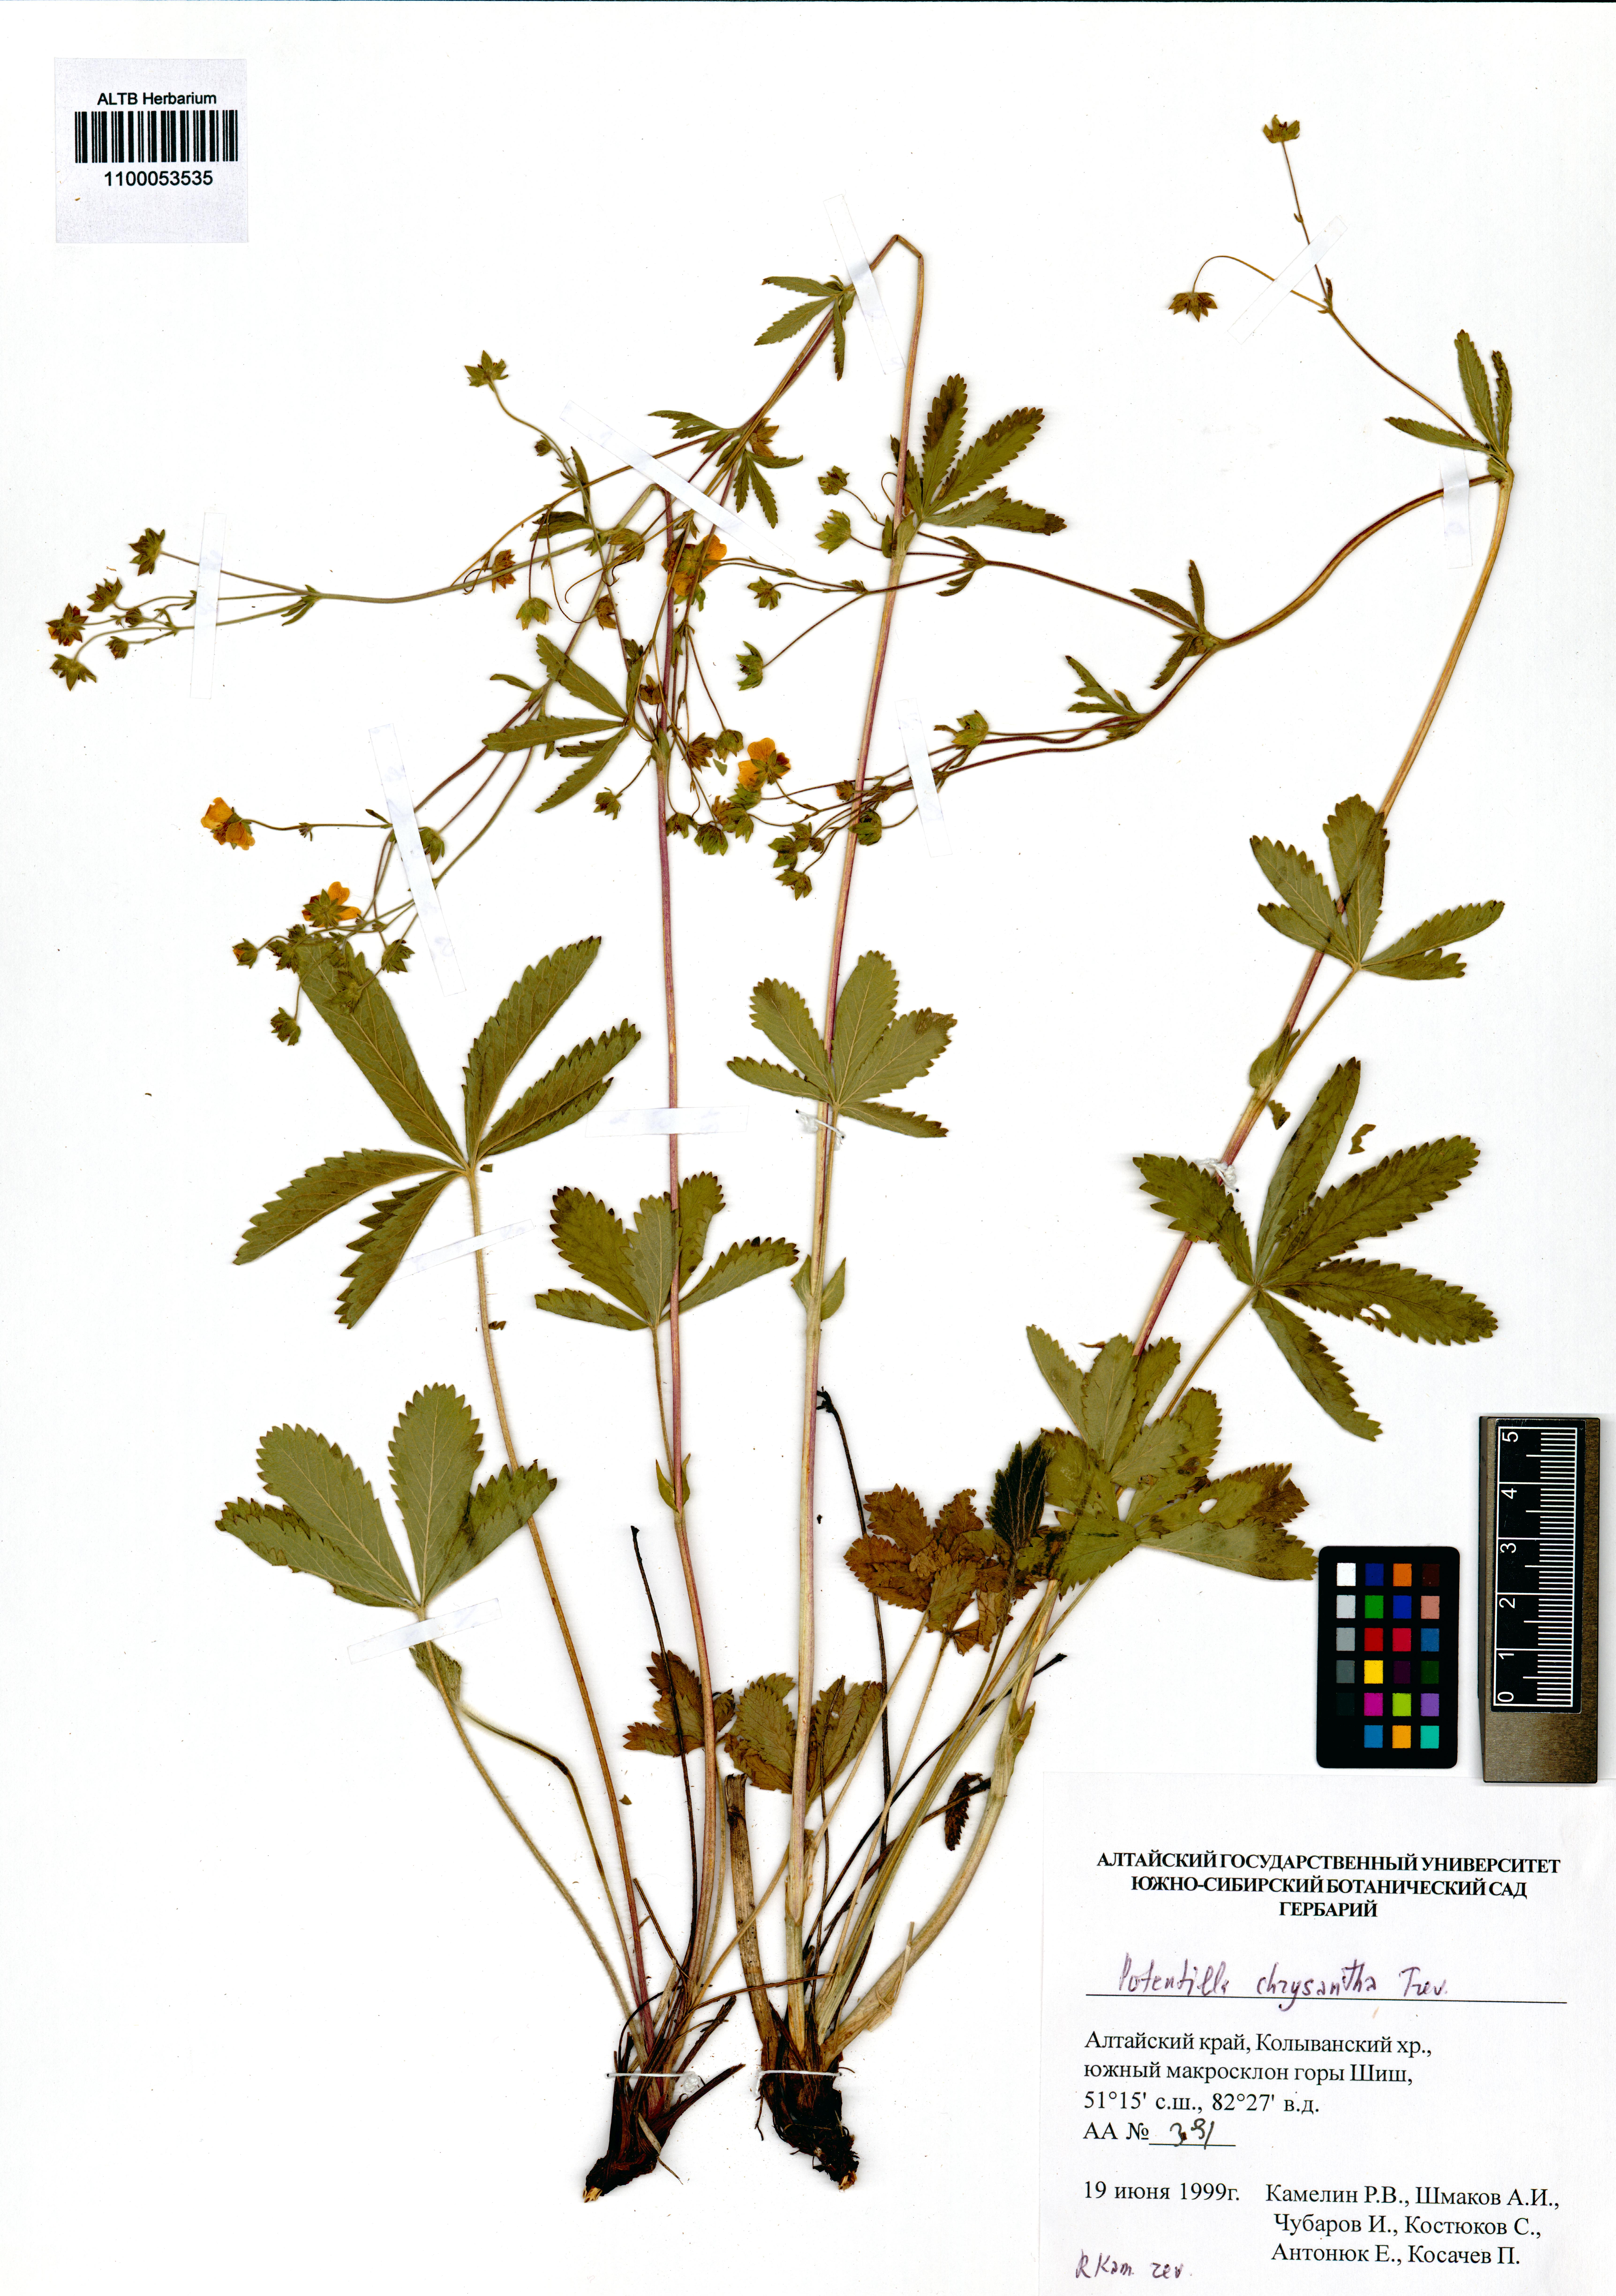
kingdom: Plantae
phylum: Tracheophyta
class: Magnoliopsida
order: Rosales
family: Rosaceae
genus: Potentilla
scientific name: Potentilla chrysantha
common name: Thuringian cinquefoil
